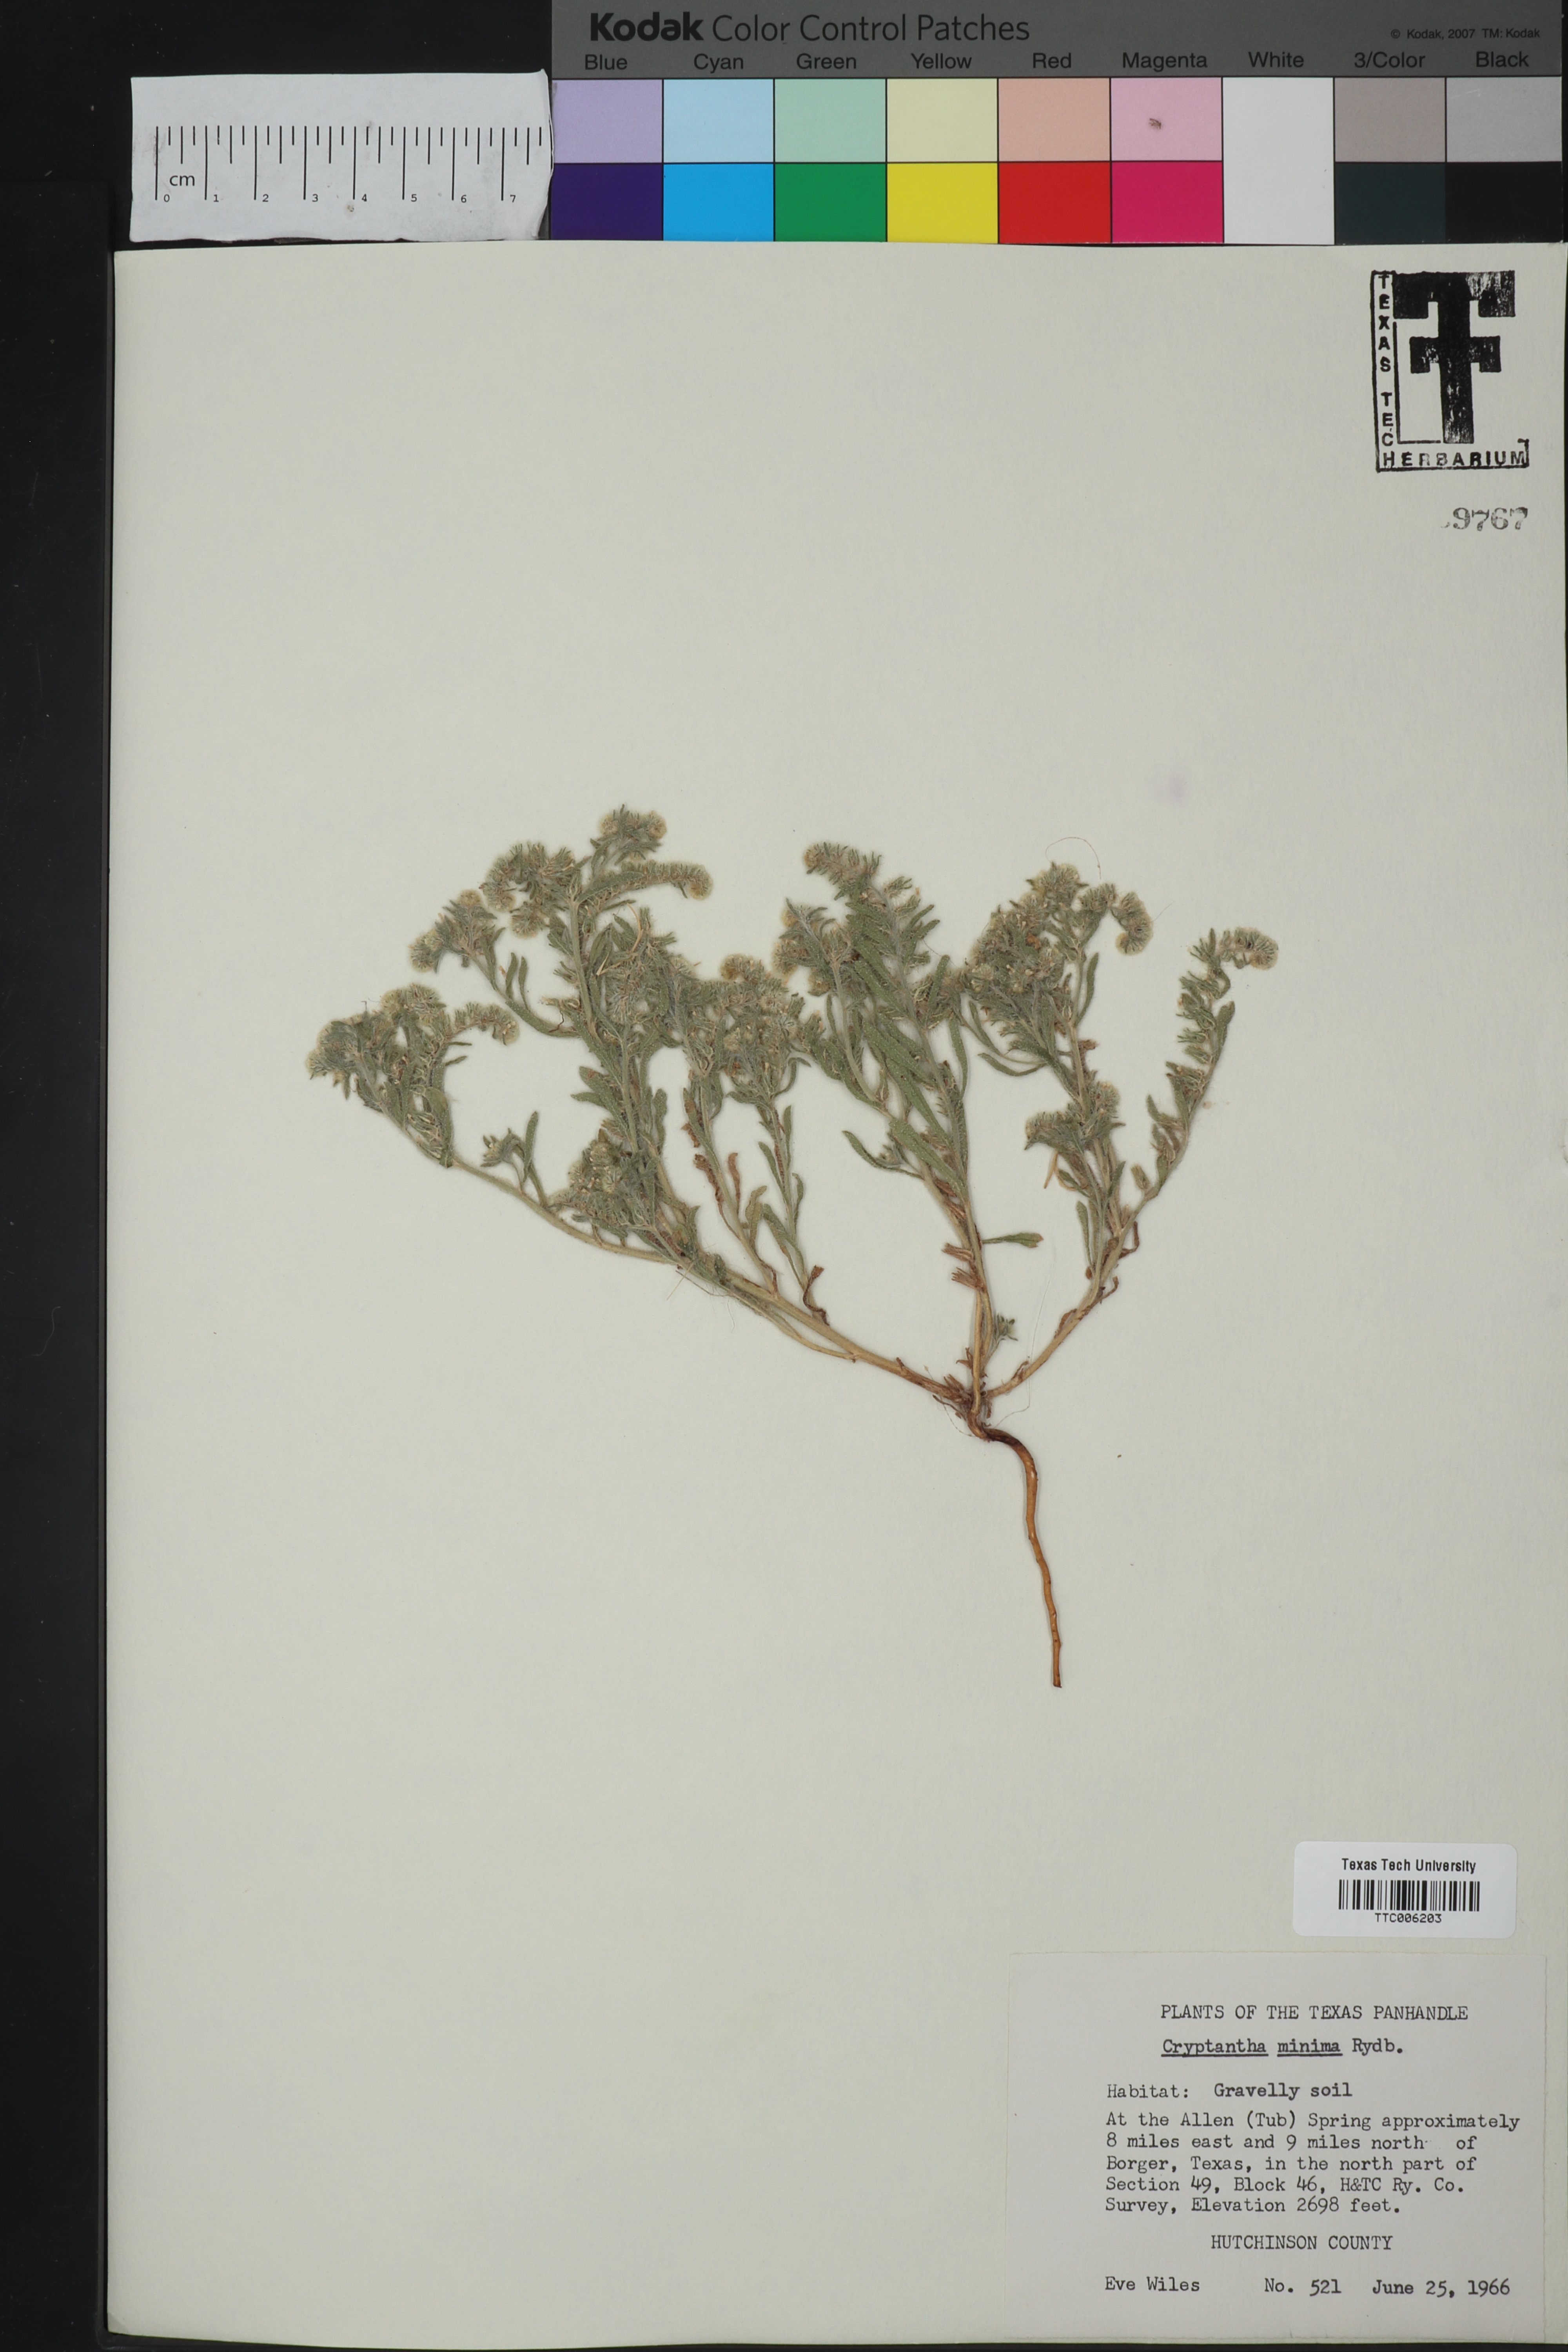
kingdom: Plantae
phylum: Tracheophyta
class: Magnoliopsida
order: Boraginales
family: Boraginaceae
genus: Cryptantha
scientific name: Cryptantha minima
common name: Little cat's-eye
